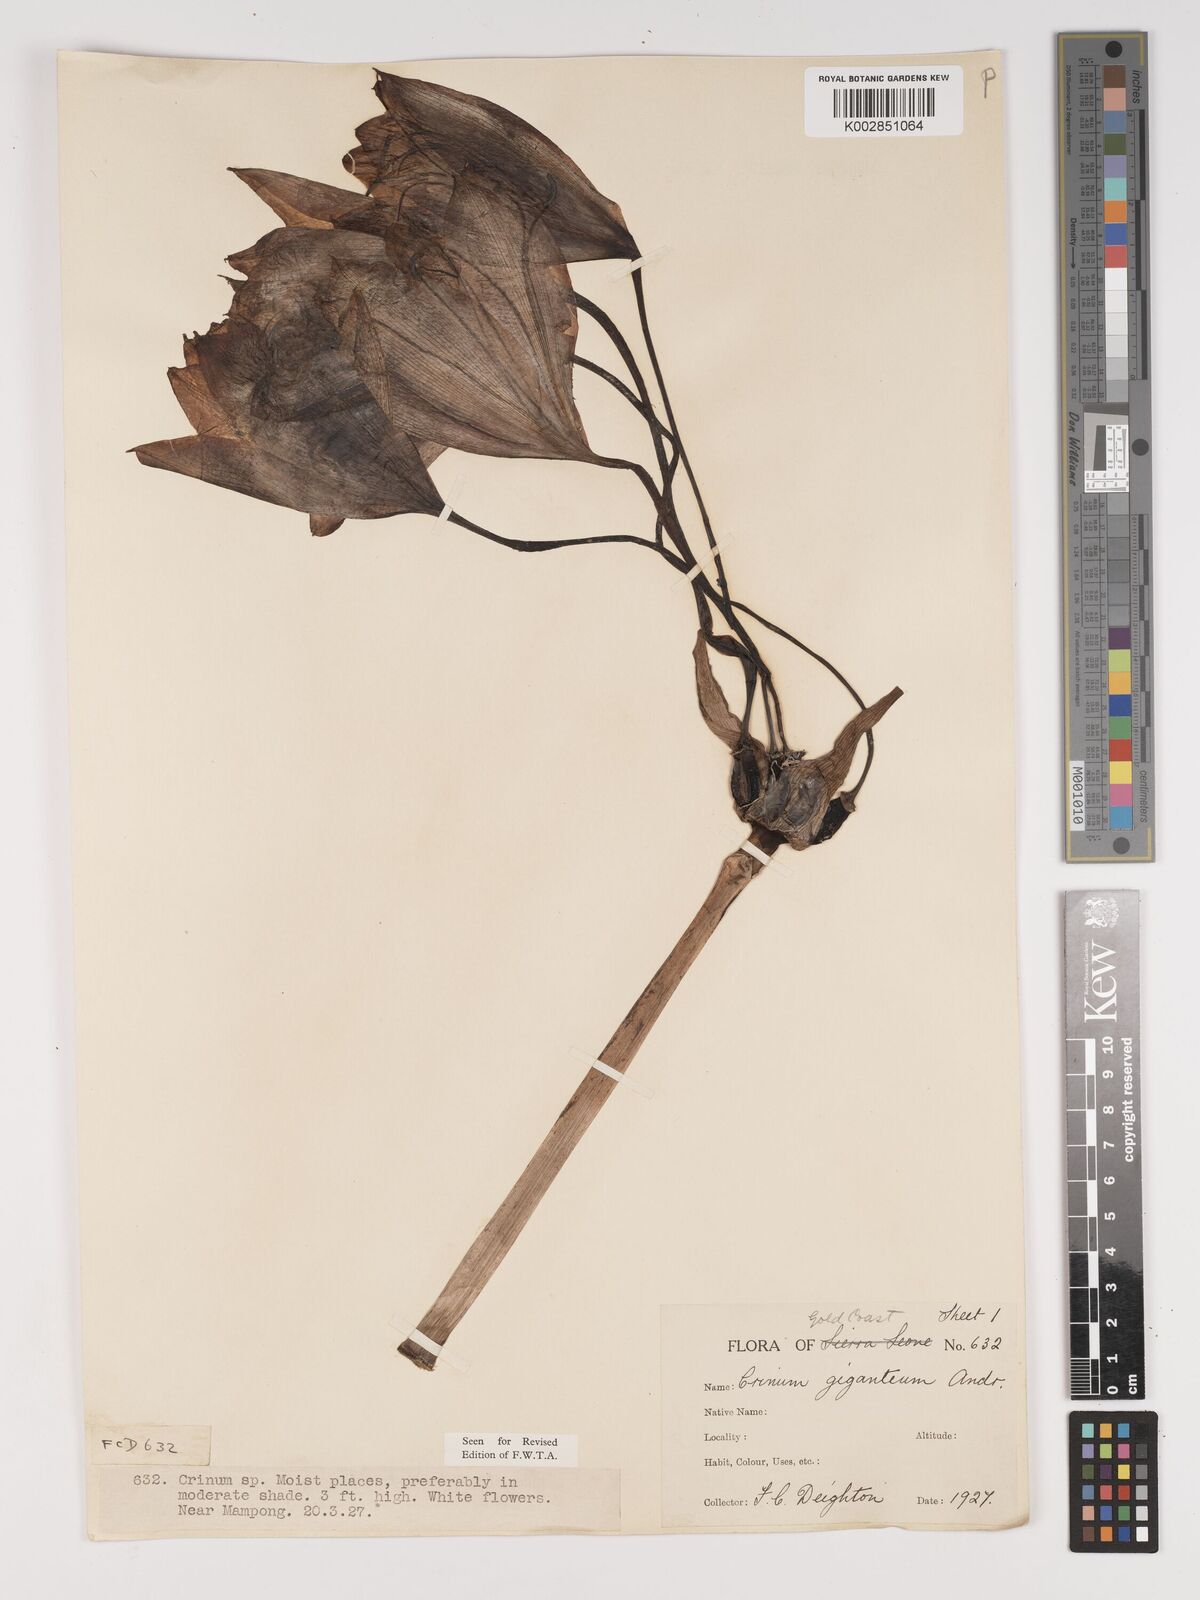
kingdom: Plantae
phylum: Tracheophyta
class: Liliopsida
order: Asparagales
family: Amaryllidaceae
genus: Crinum
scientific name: Crinum jagus
